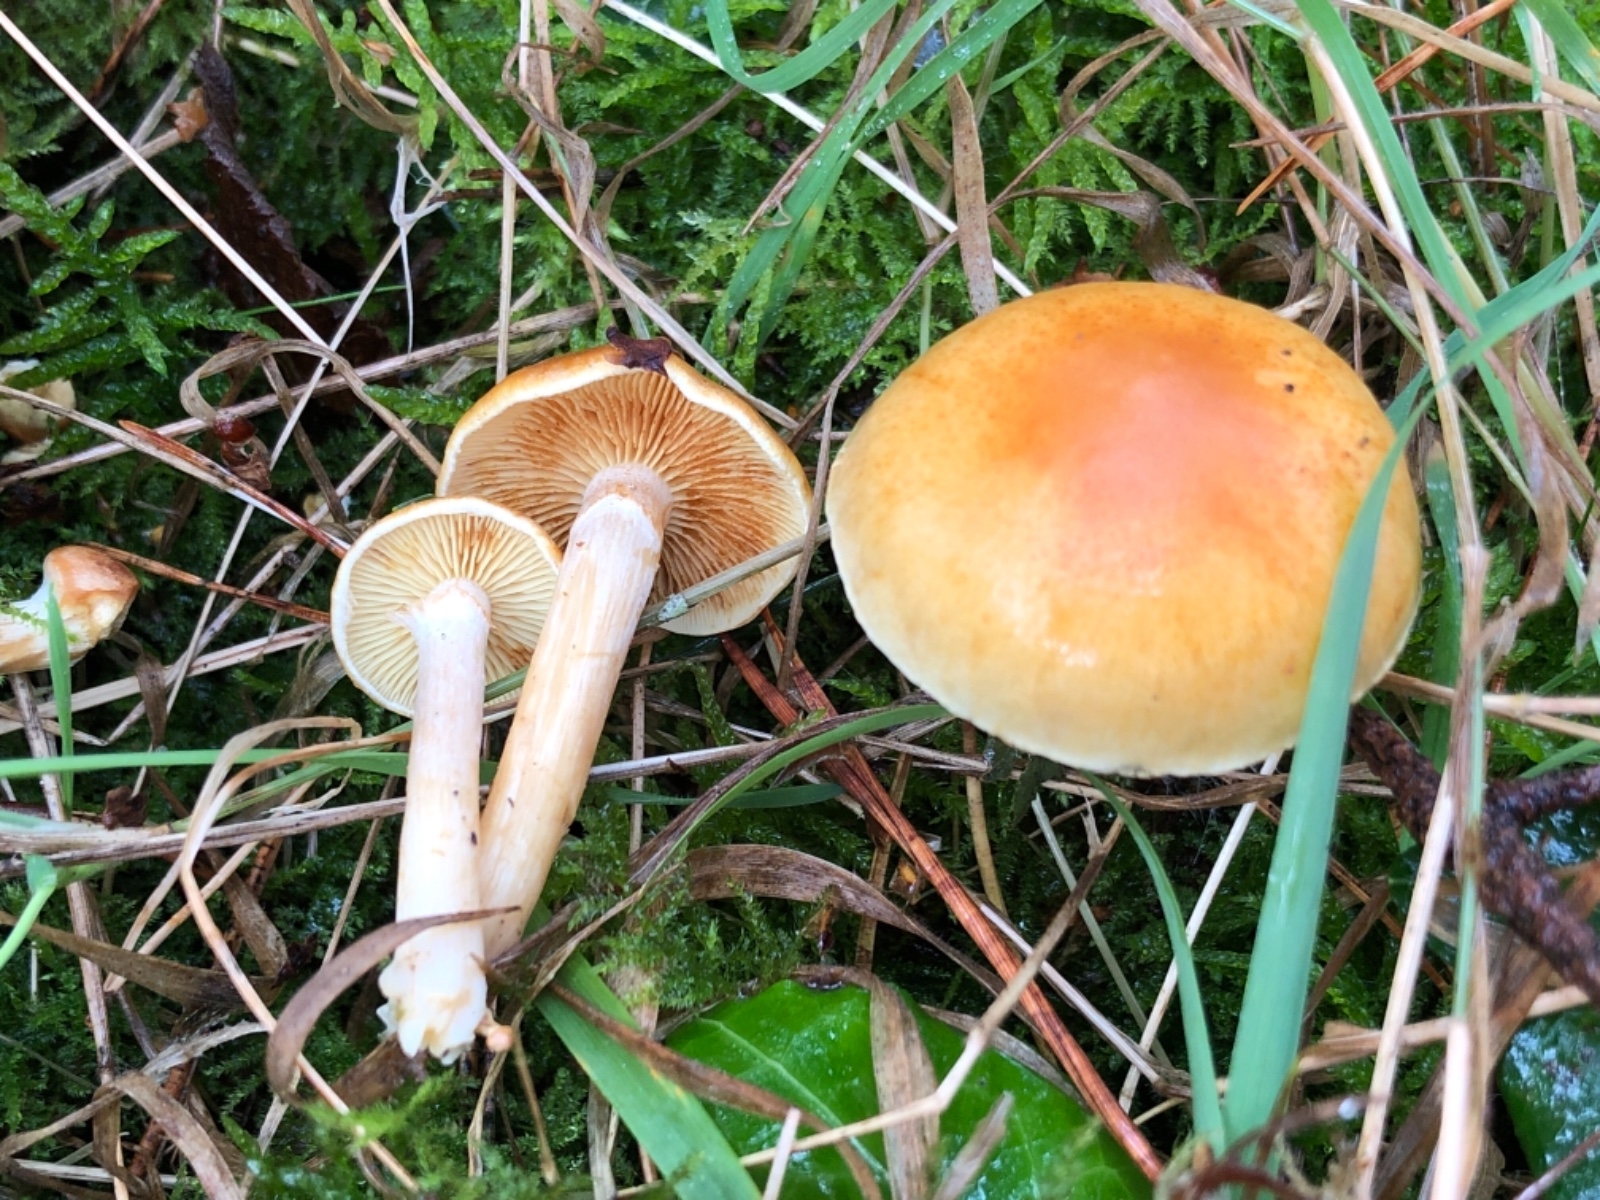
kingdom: Fungi
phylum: Basidiomycota
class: Agaricomycetes
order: Agaricales
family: Hymenogastraceae
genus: Gymnopilus
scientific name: Gymnopilus penetrans
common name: plettet flammehat
